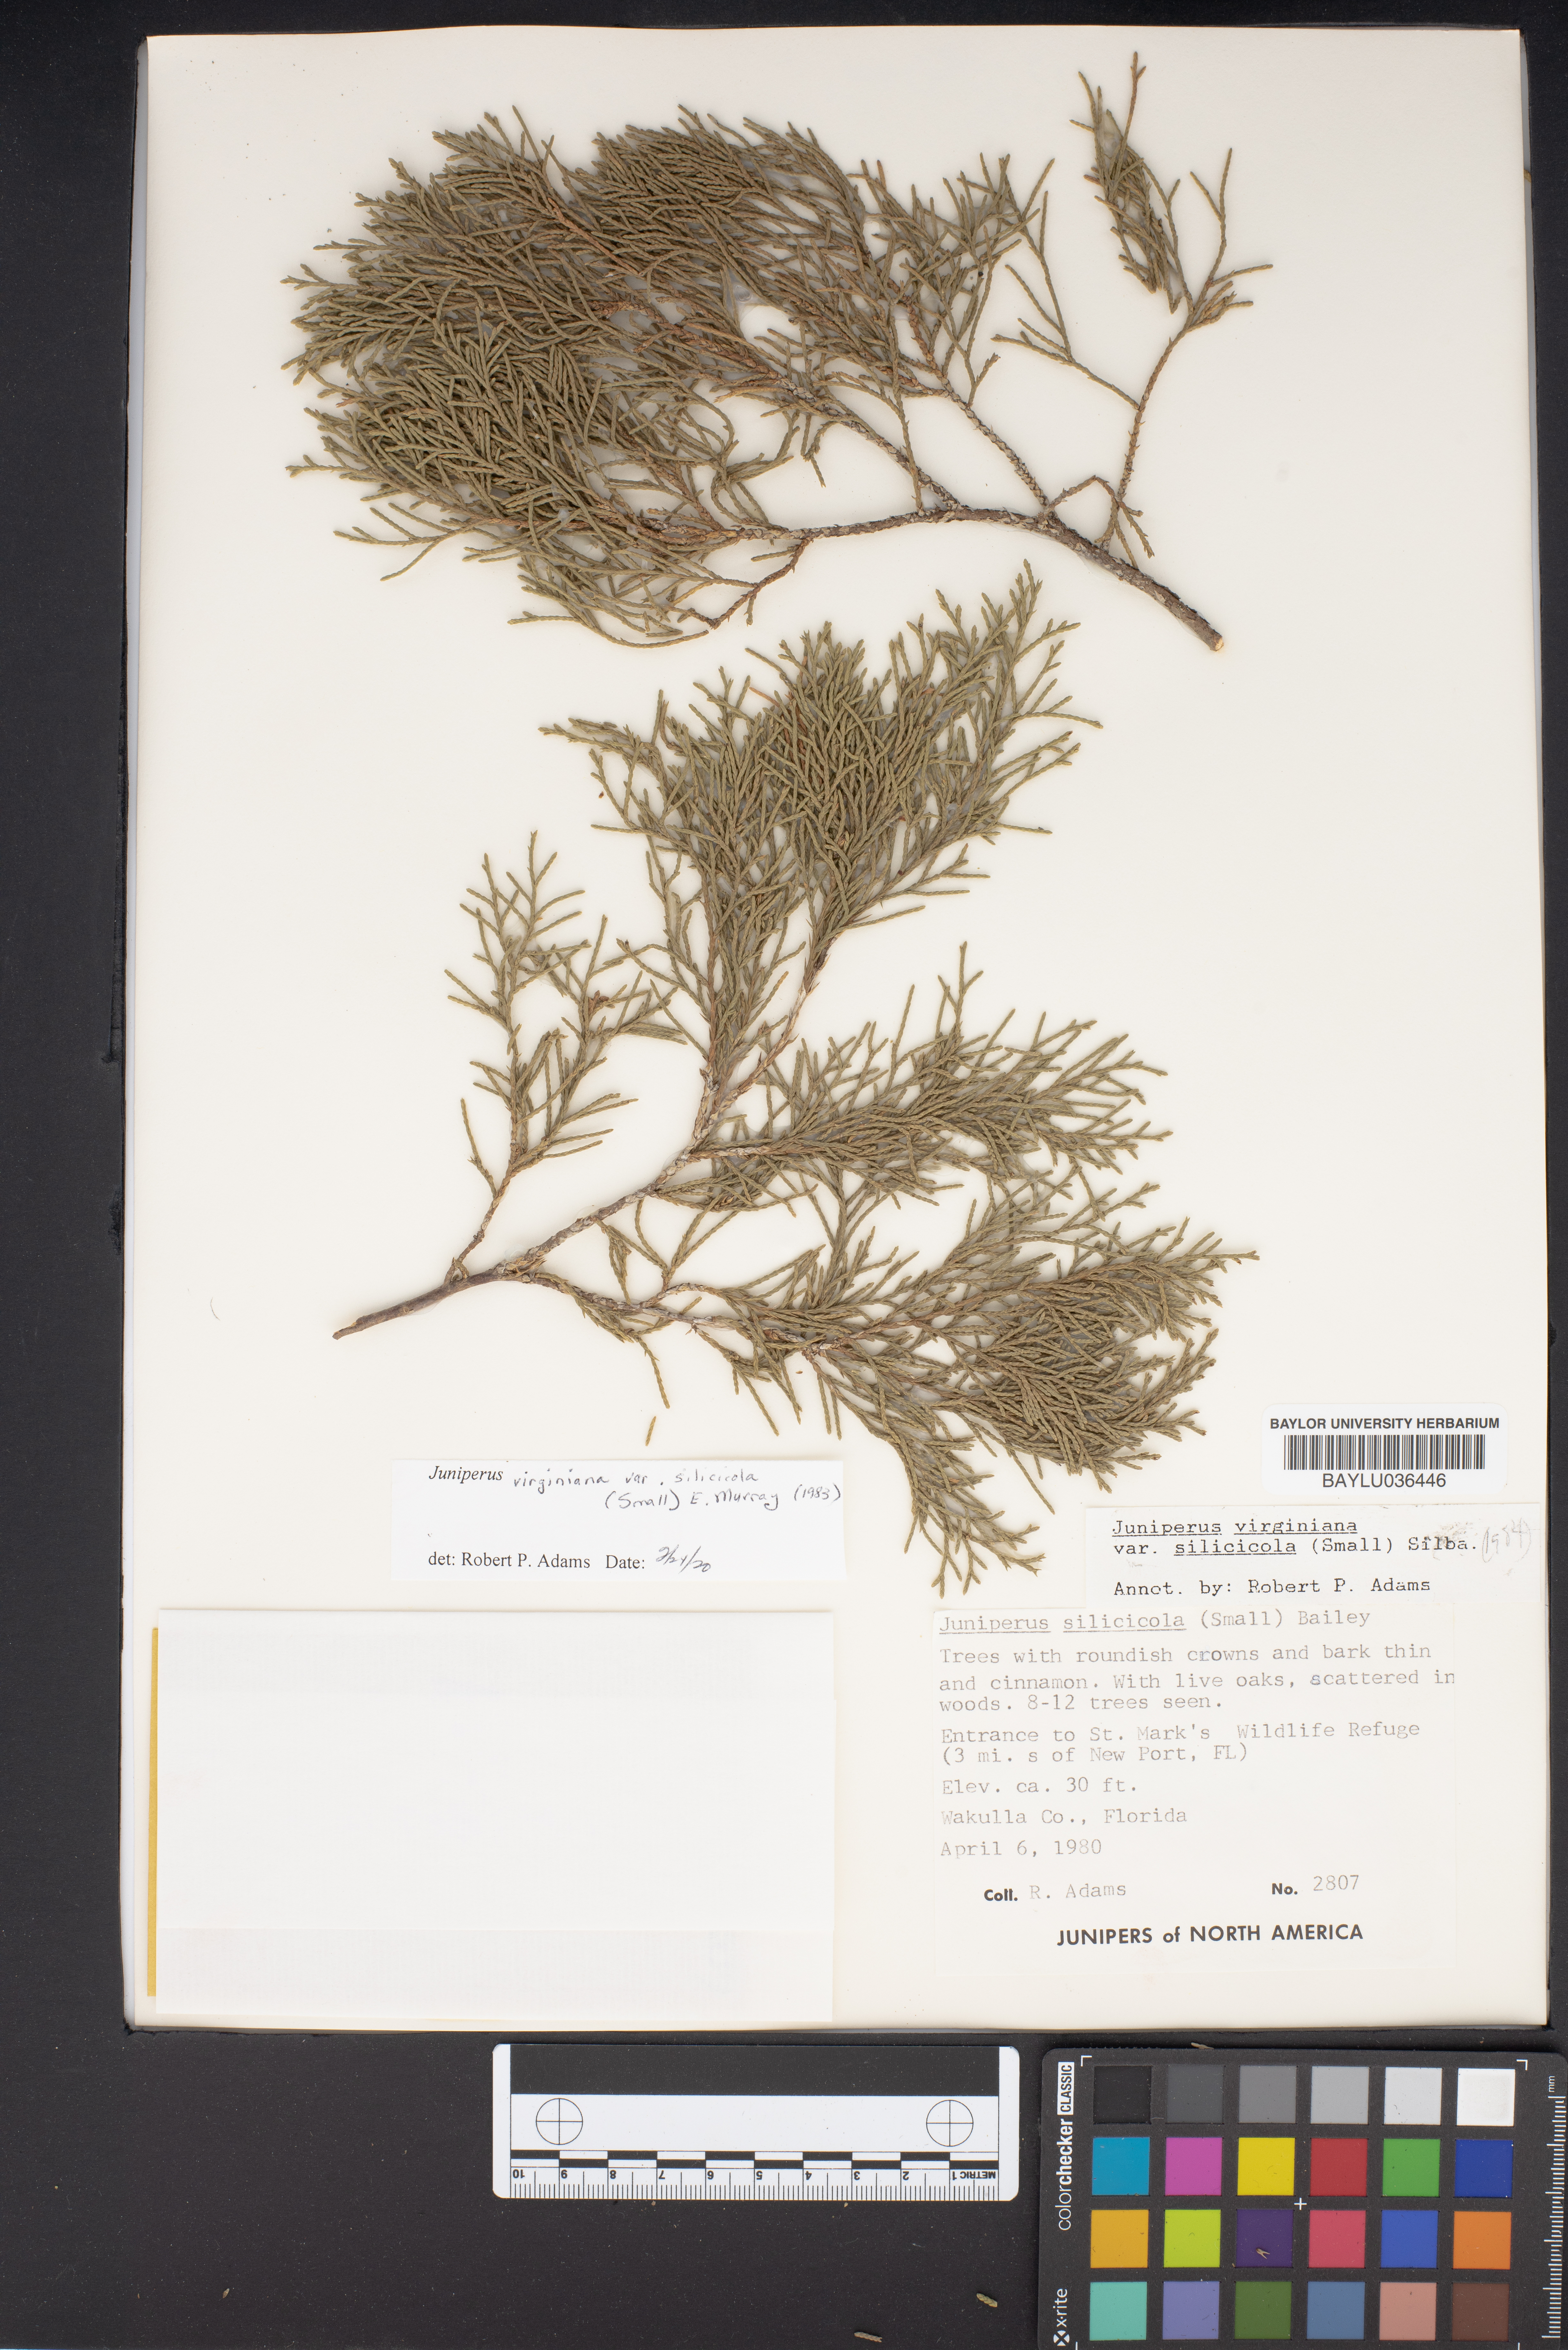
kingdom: Plantae
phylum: Tracheophyta
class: Pinopsida
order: Pinales
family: Cupressaceae
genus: Juniperus
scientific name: Juniperus virginiana
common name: Red juniper
